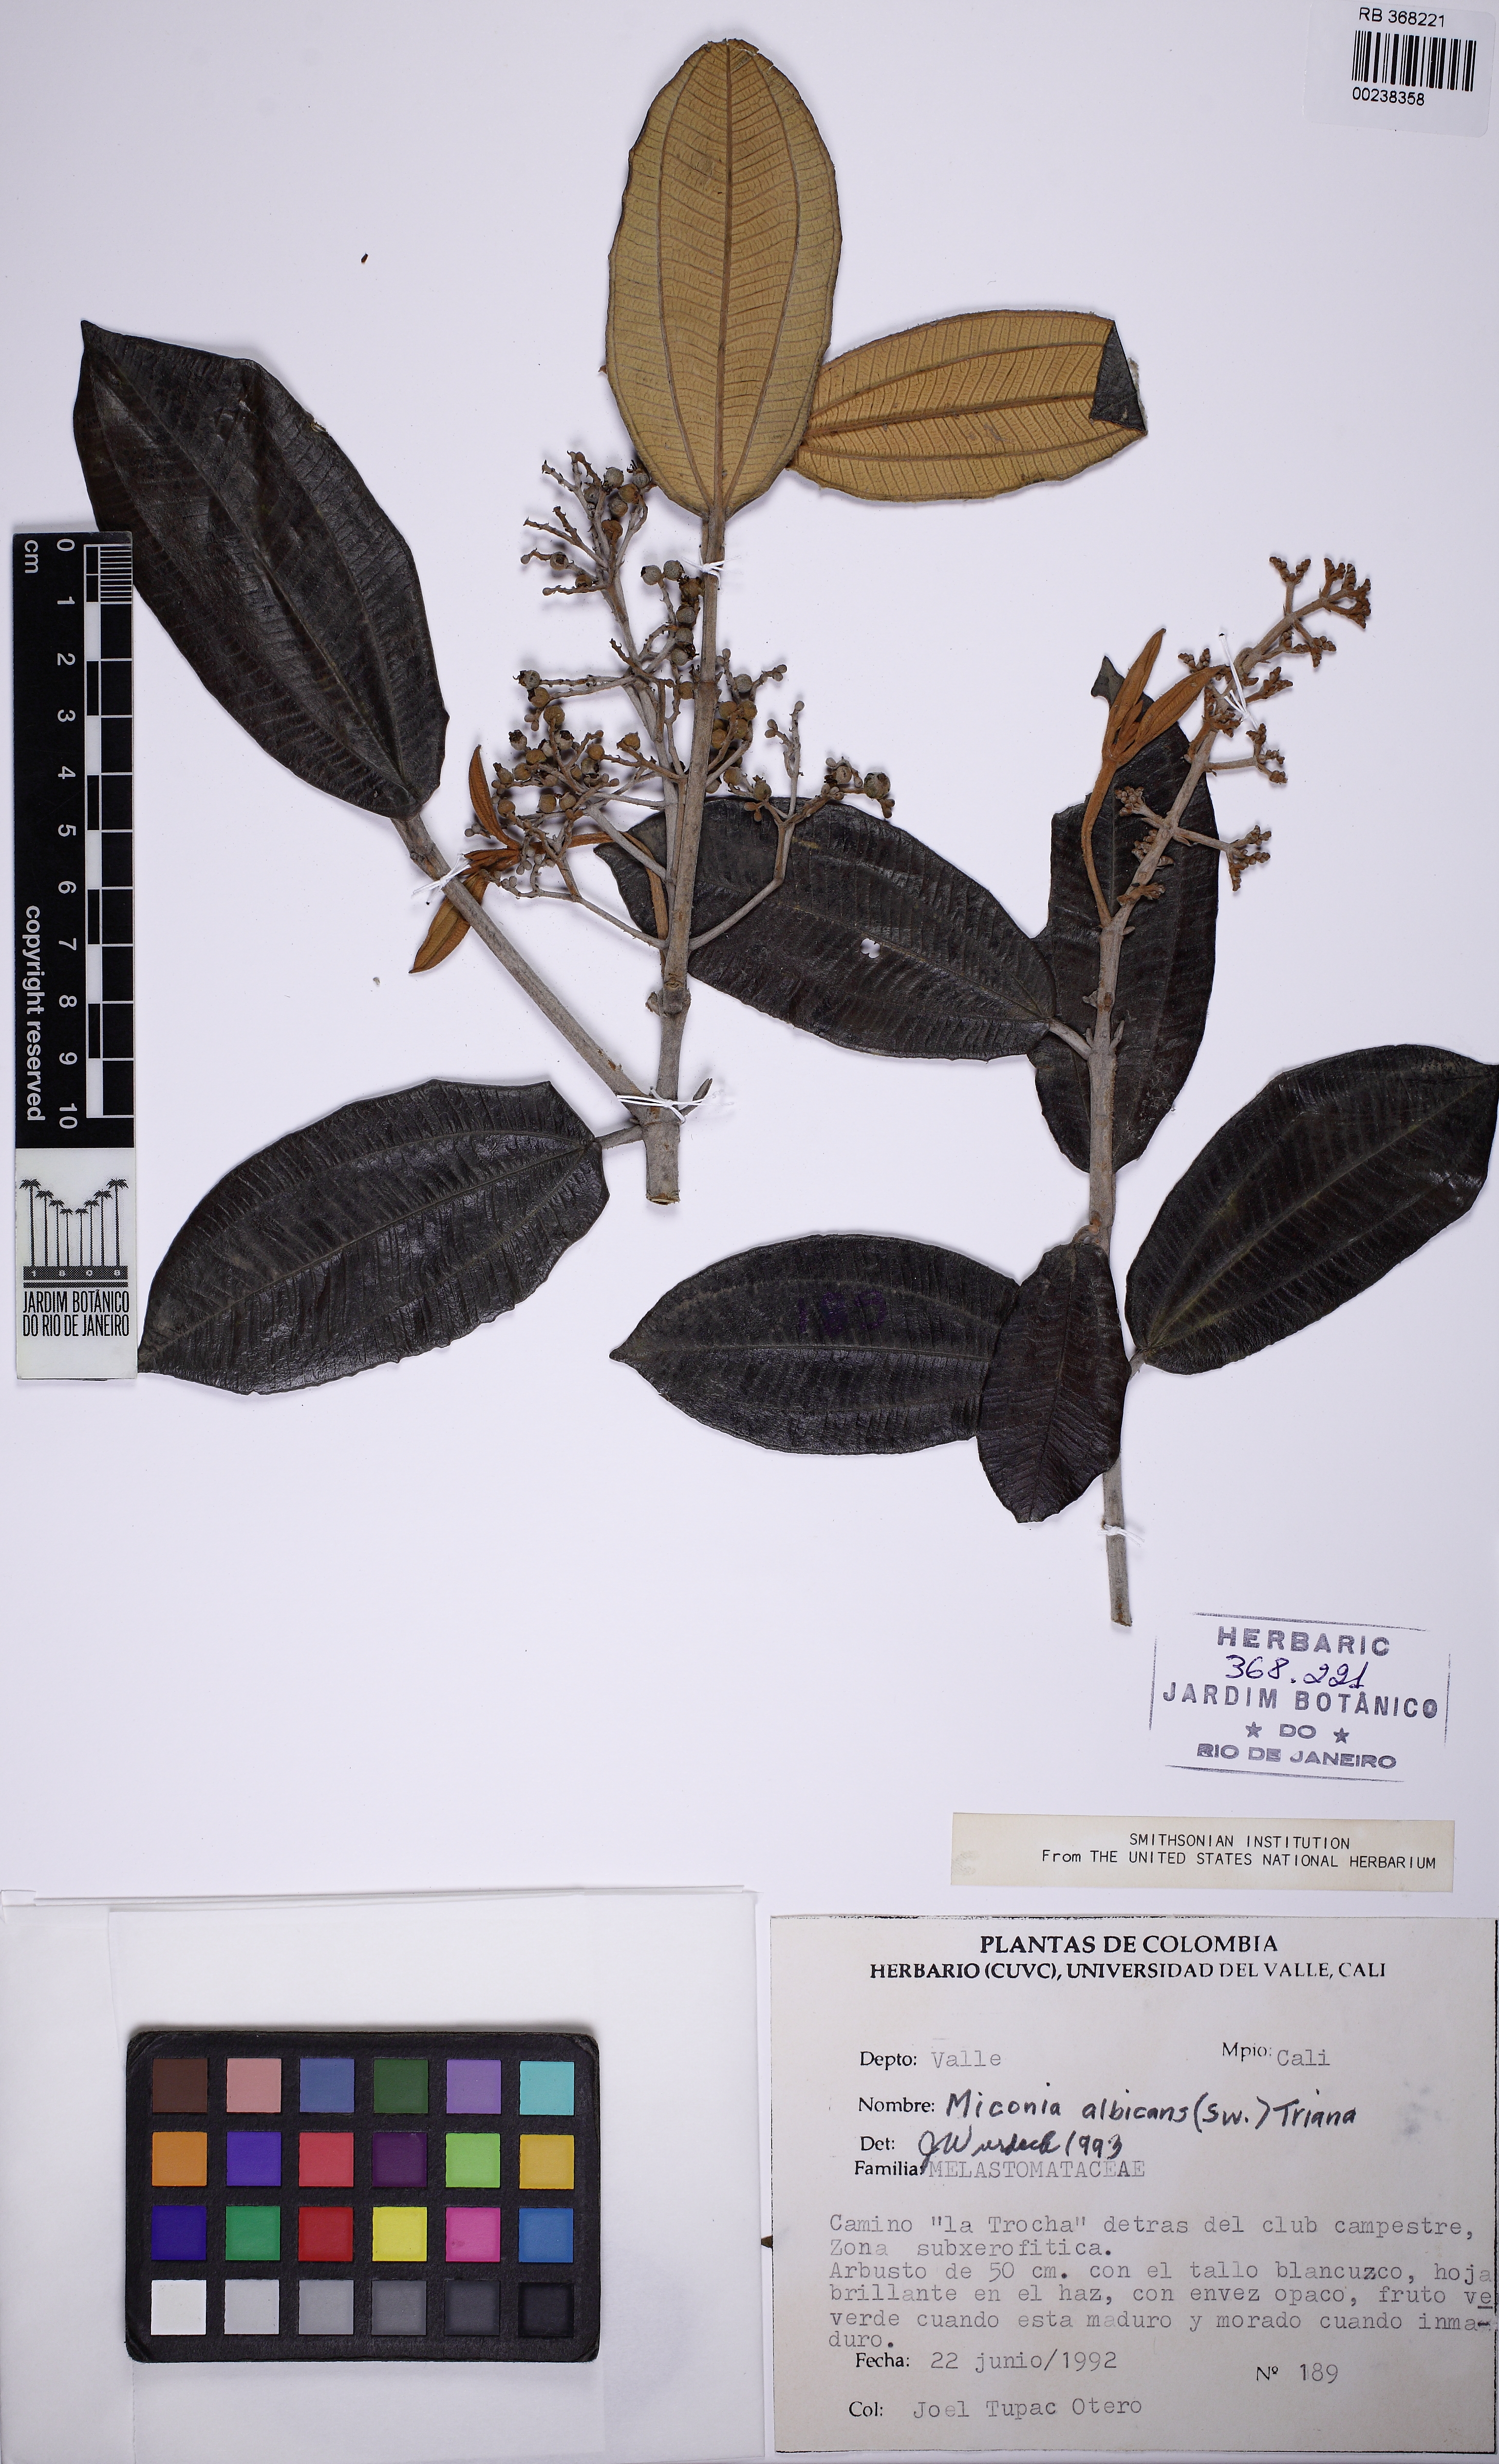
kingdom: Plantae
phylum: Tracheophyta
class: Magnoliopsida
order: Myrtales
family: Melastomataceae
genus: Miconia
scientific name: Miconia albicans
